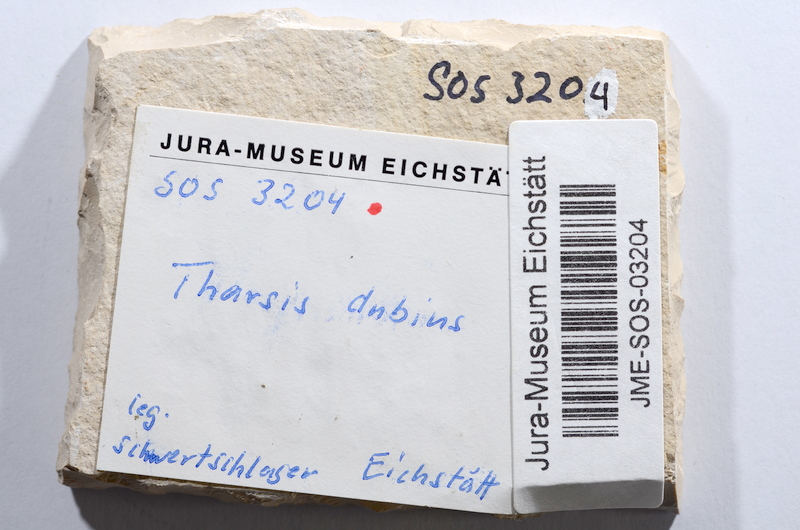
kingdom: Animalia
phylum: Chordata
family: Ascalaboidae
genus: Tharsis
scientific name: Tharsis dubius
